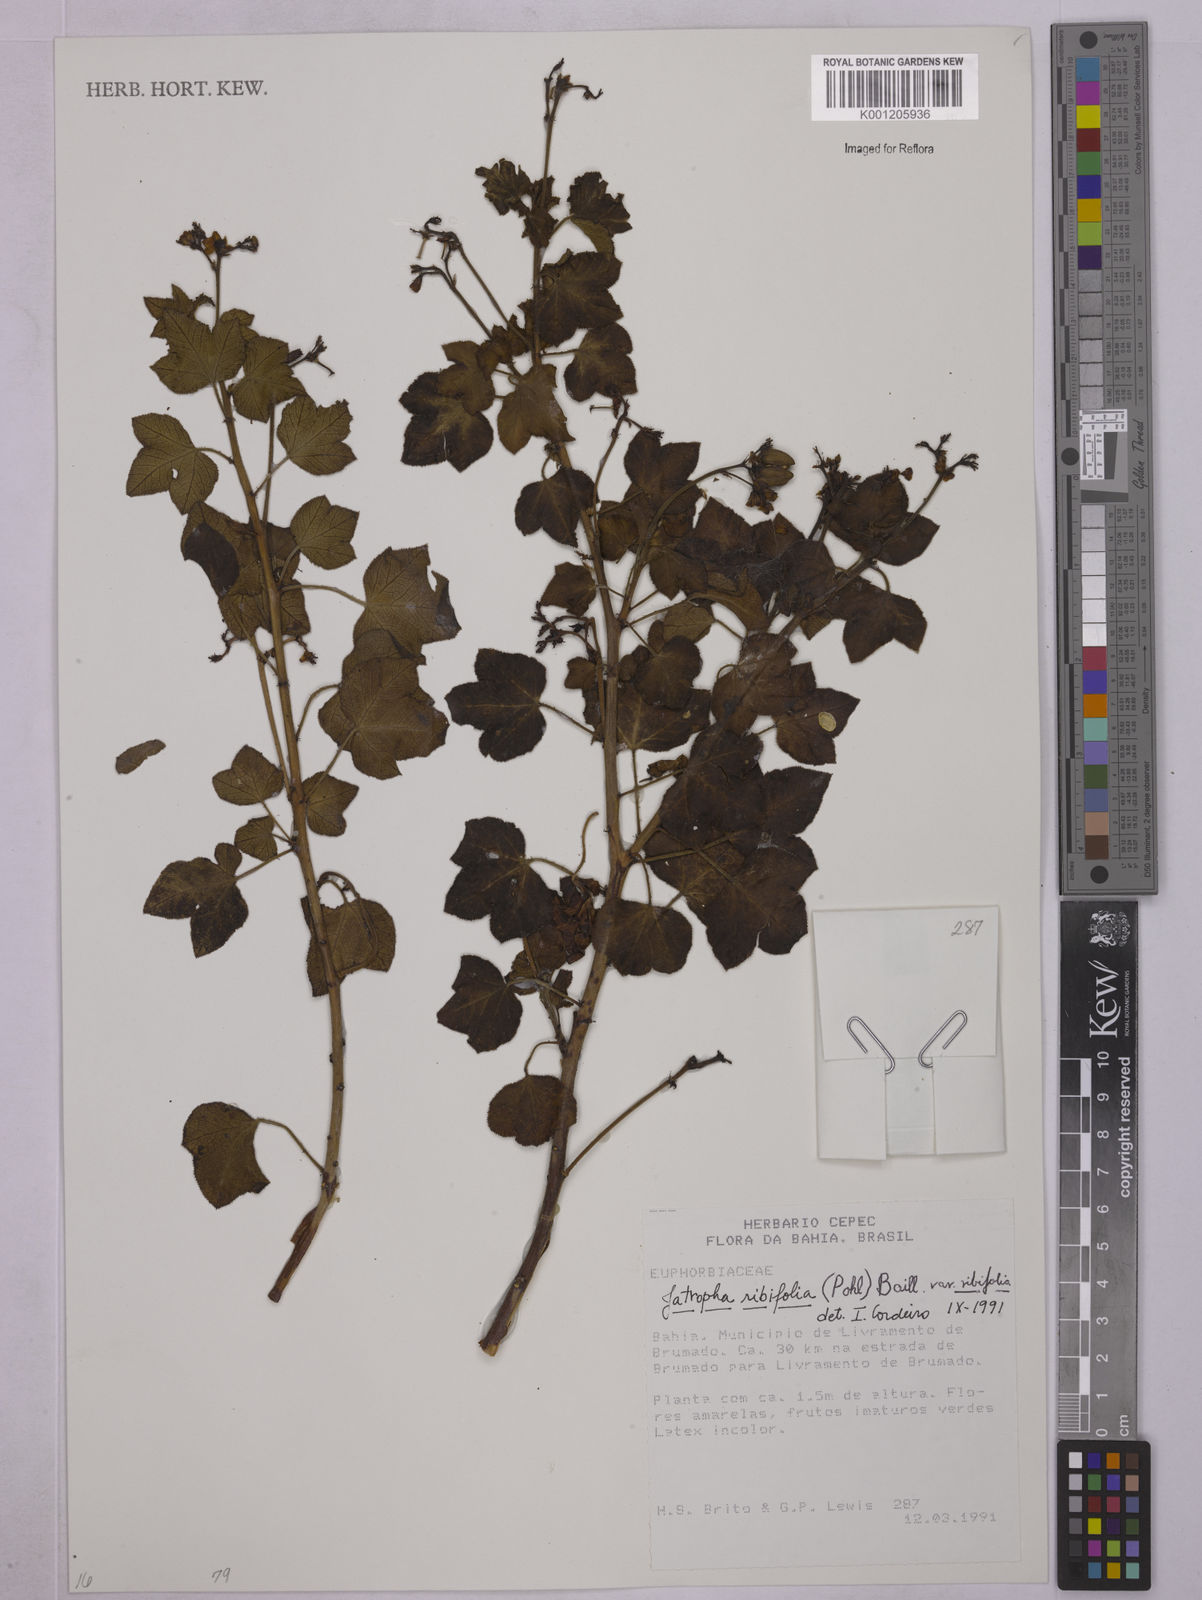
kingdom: Plantae
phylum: Tracheophyta
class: Magnoliopsida
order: Malpighiales
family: Euphorbiaceae
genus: Jatropha
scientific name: Jatropha ribifolia
